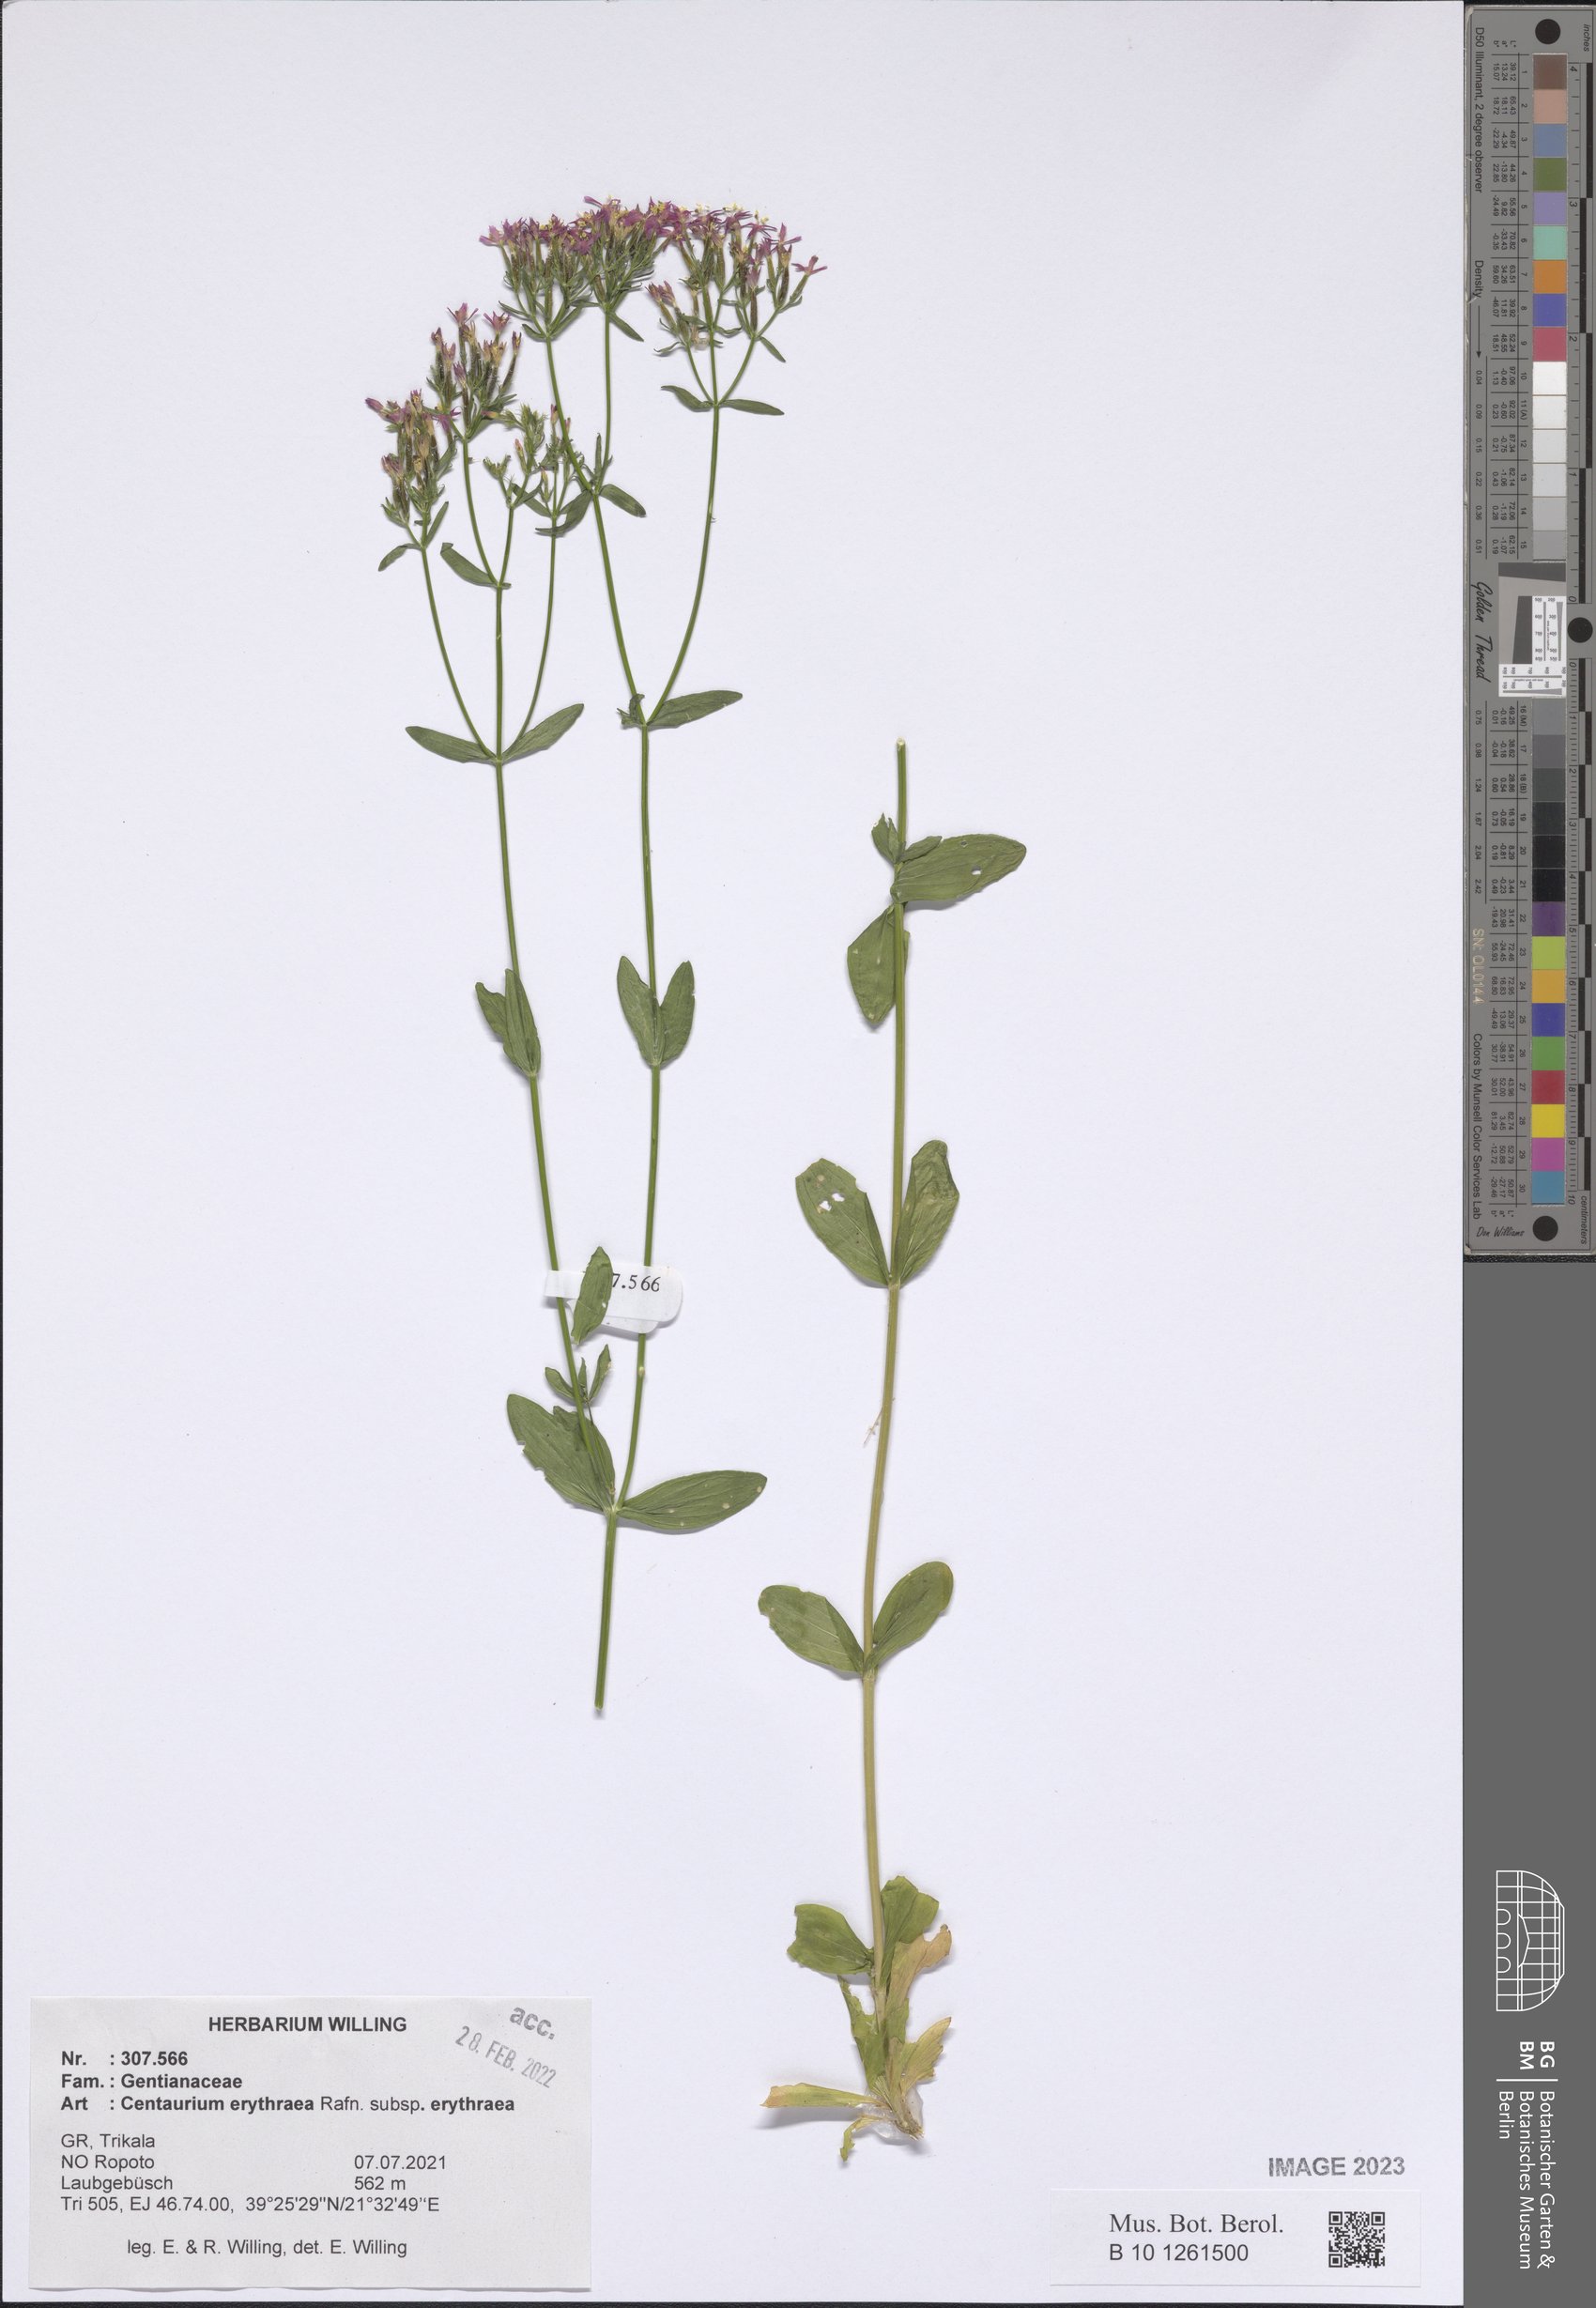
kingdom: Plantae
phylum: Tracheophyta
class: Magnoliopsida
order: Gentianales
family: Gentianaceae
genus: Centaurium
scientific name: Centaurium erythraea
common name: Common centaury
